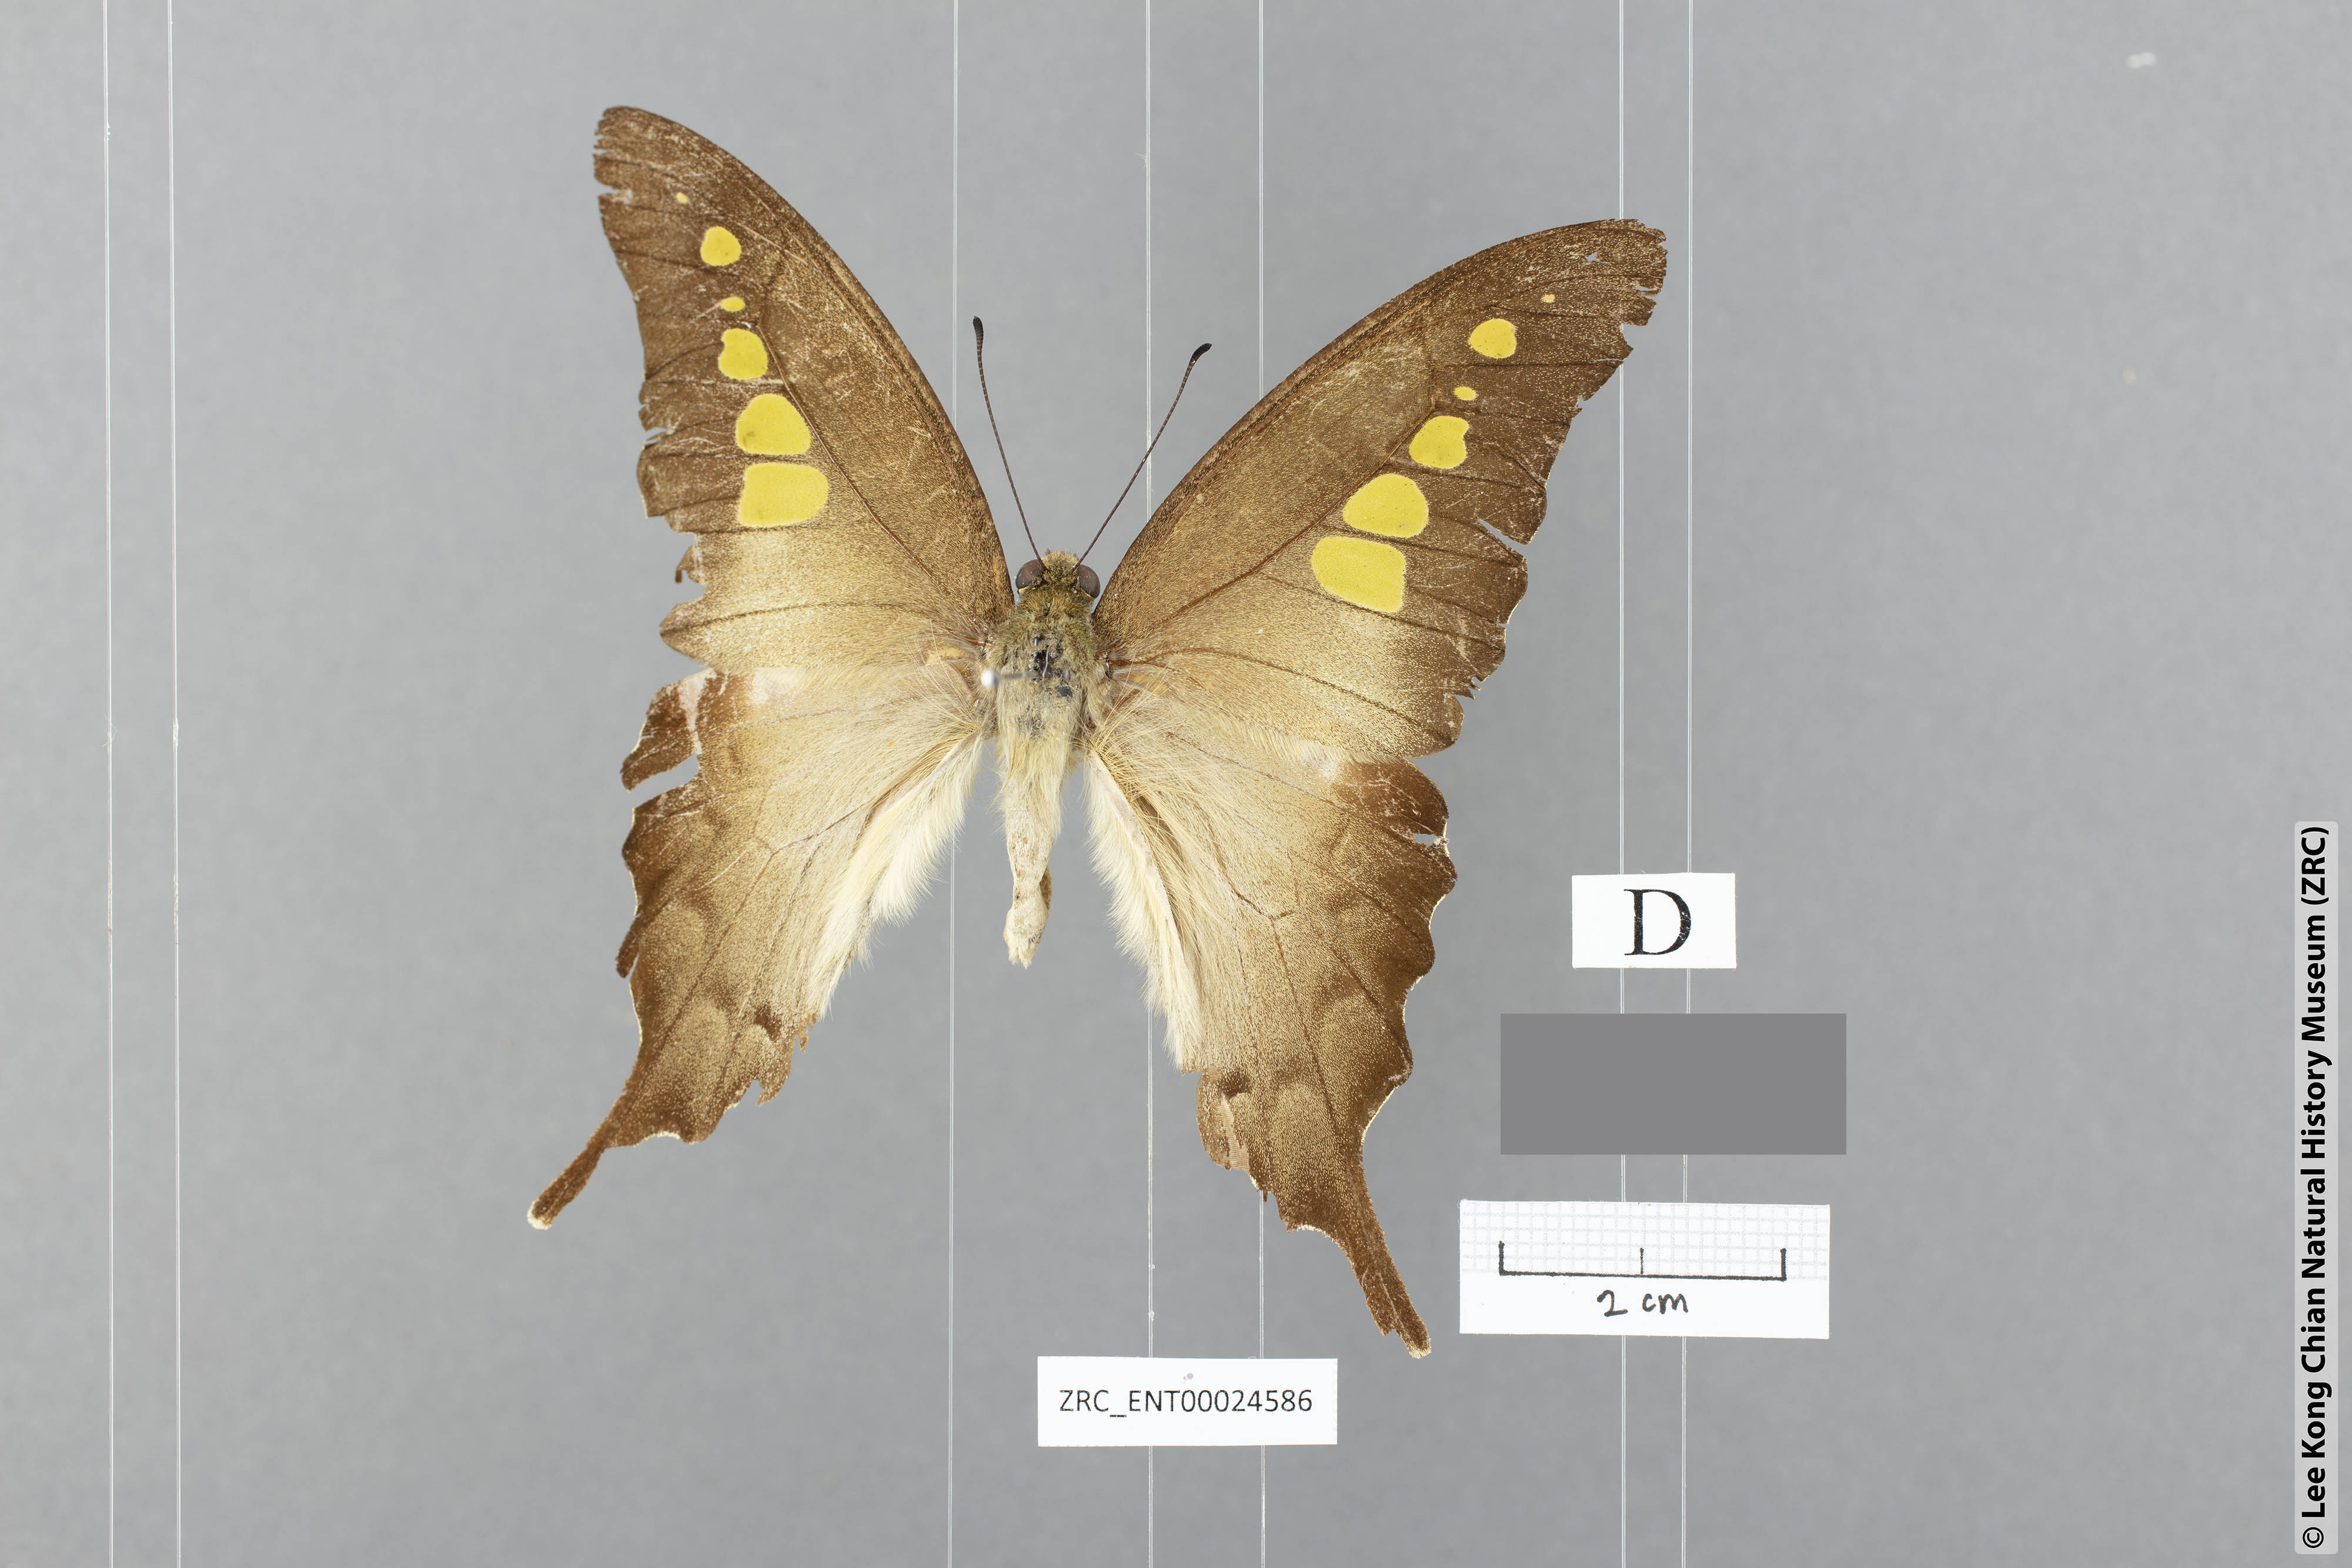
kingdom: Animalia
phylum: Arthropoda
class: Insecta
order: Lepidoptera
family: Papilionidae
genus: Graphium
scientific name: Graphium empedovana
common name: Malayan yellowbottle
